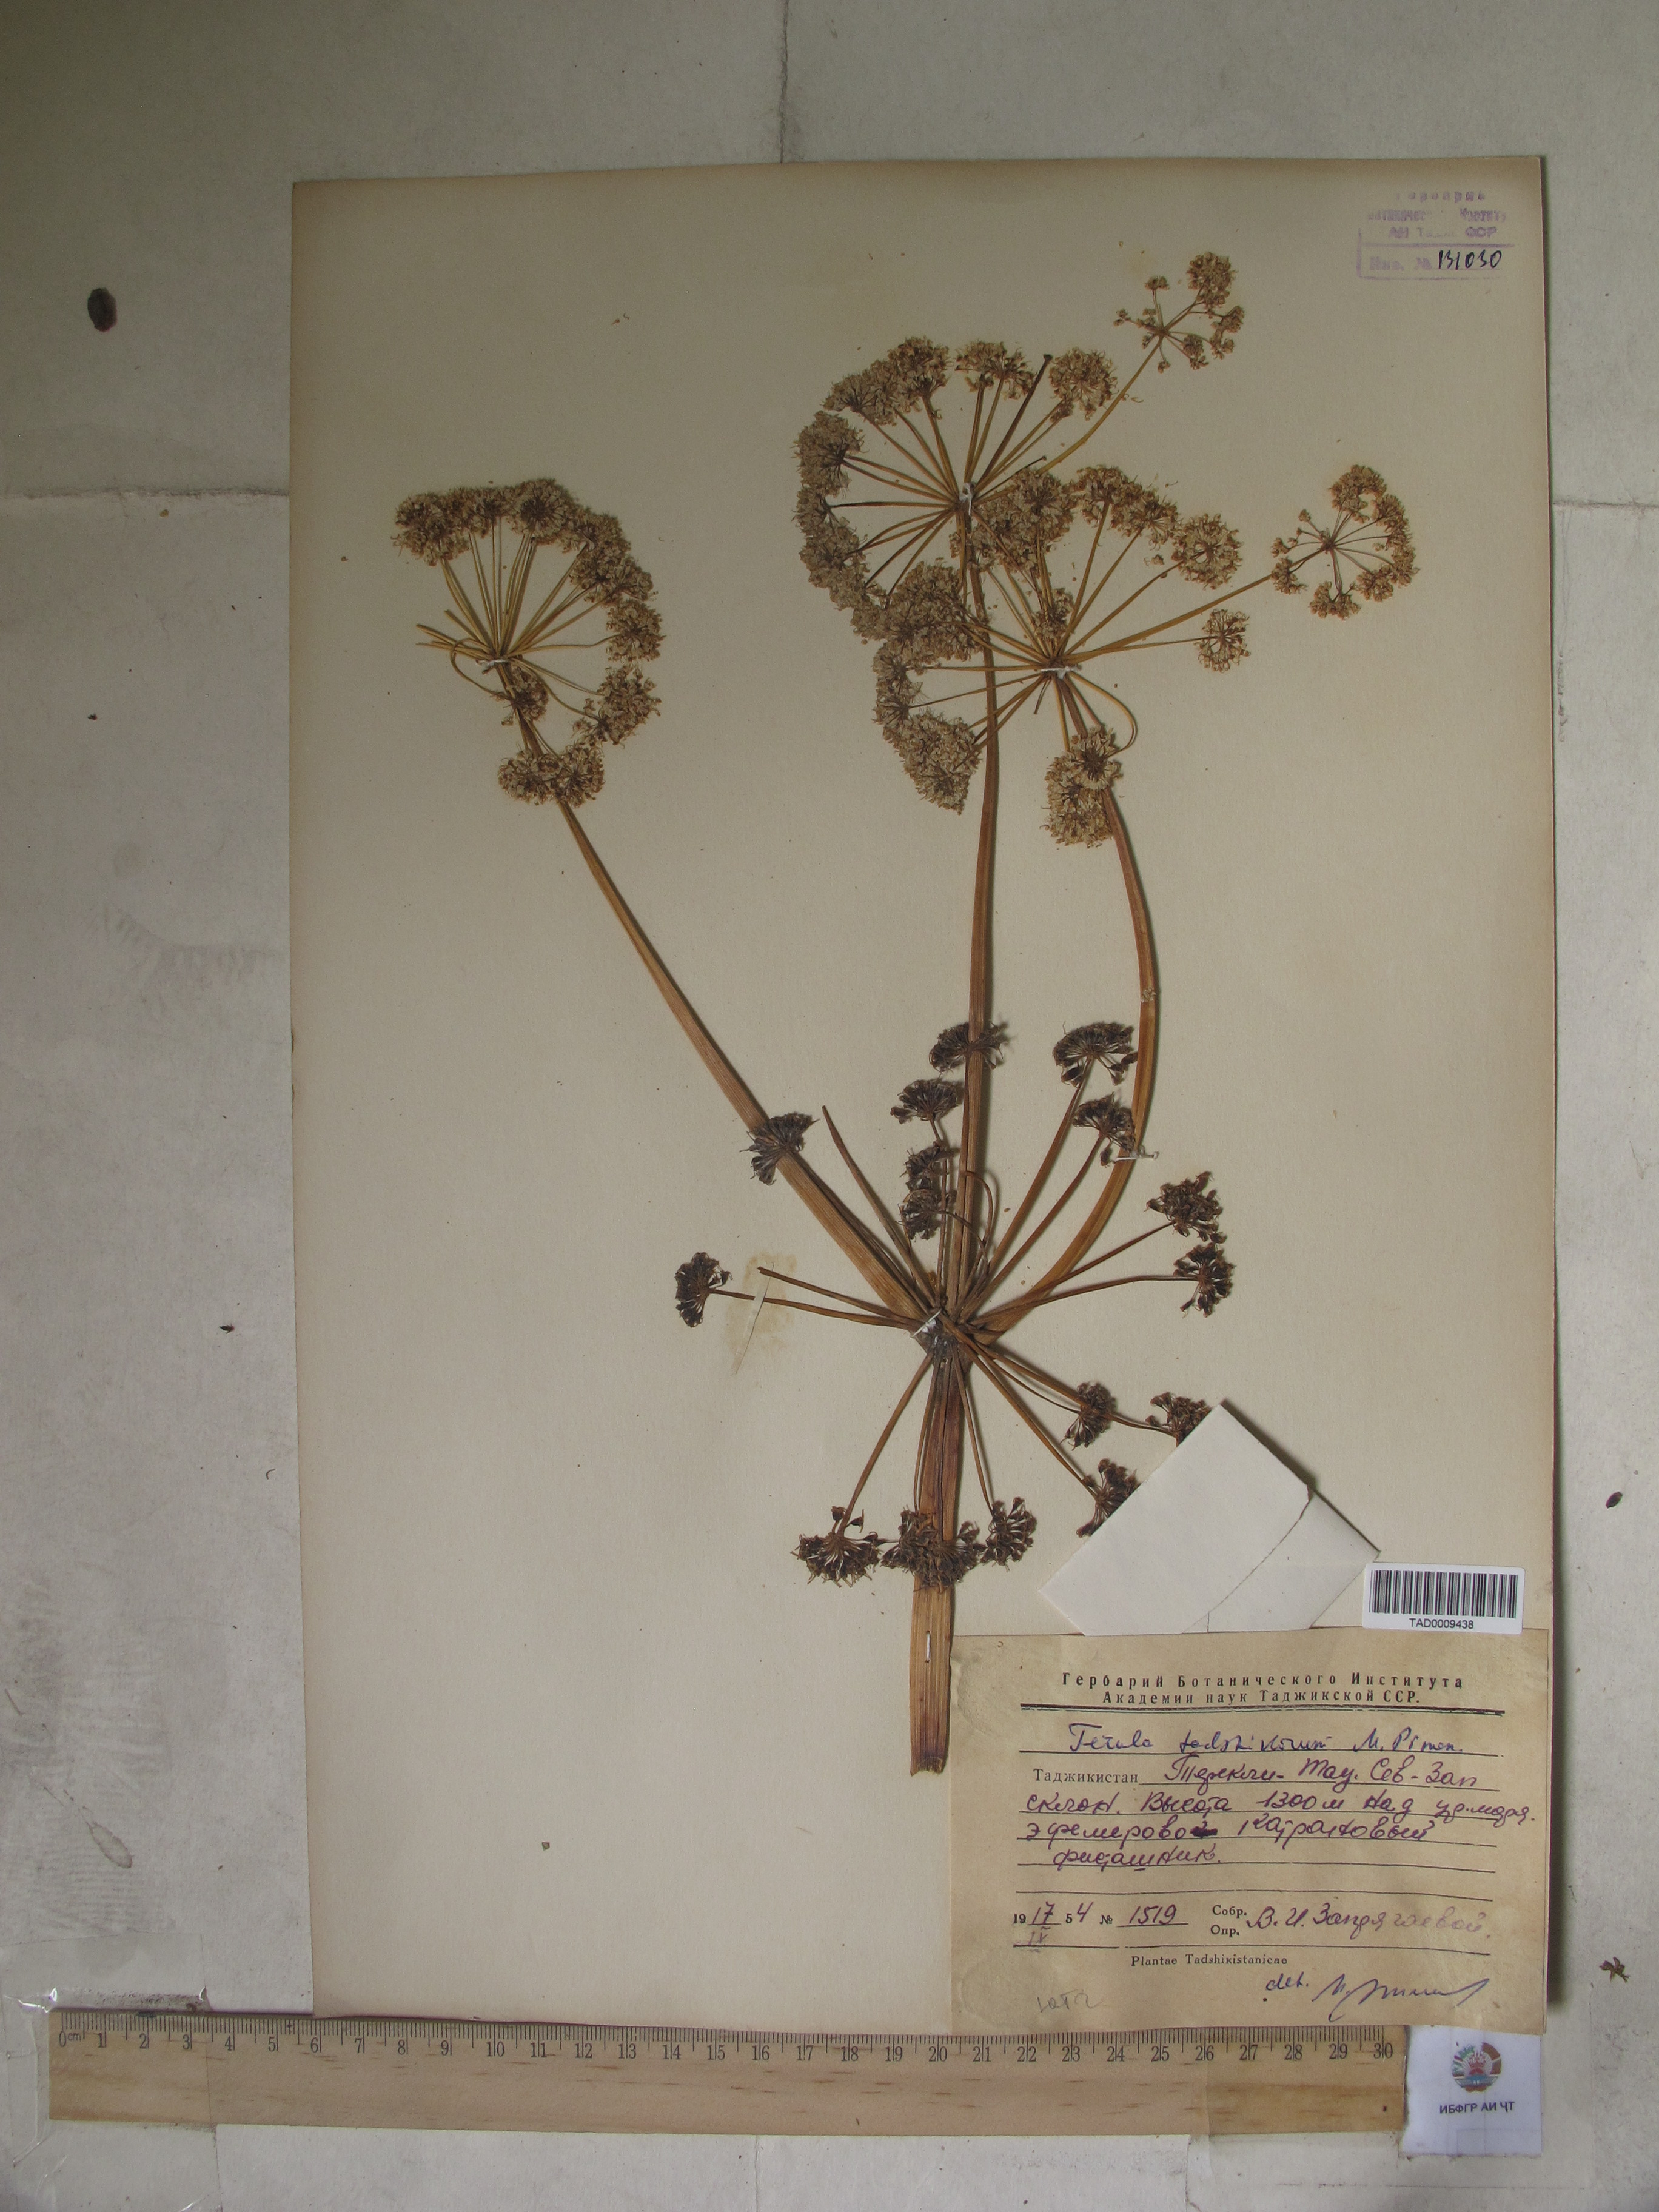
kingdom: Plantae
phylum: Tracheophyta
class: Magnoliopsida
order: Apiales
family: Apiaceae
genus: Ferula
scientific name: Ferula tadshikorum
